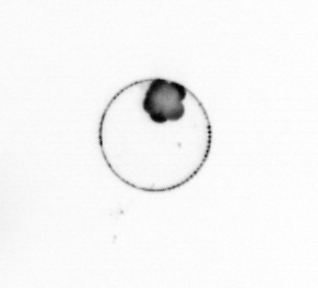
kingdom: Chromista
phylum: Ochrophyta
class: Bacillariophyceae
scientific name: Bacillariophyceae
